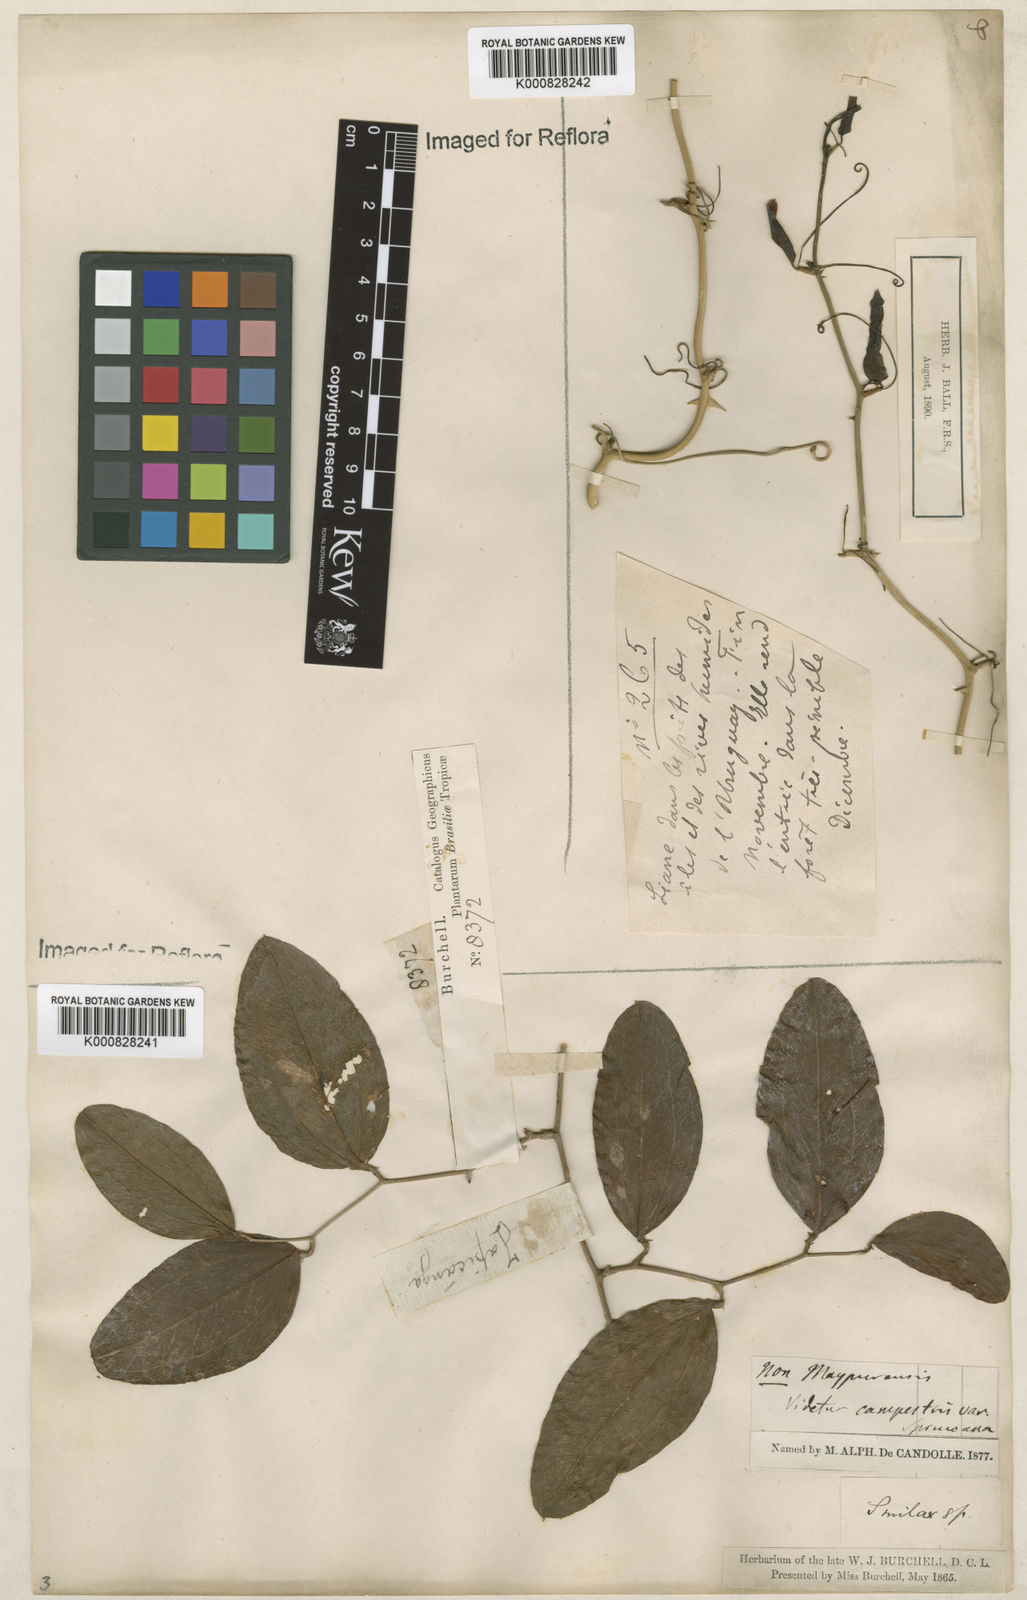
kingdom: Plantae
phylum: Tracheophyta
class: Liliopsida
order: Liliales
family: Smilacaceae
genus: Smilax
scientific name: Smilax campestris
